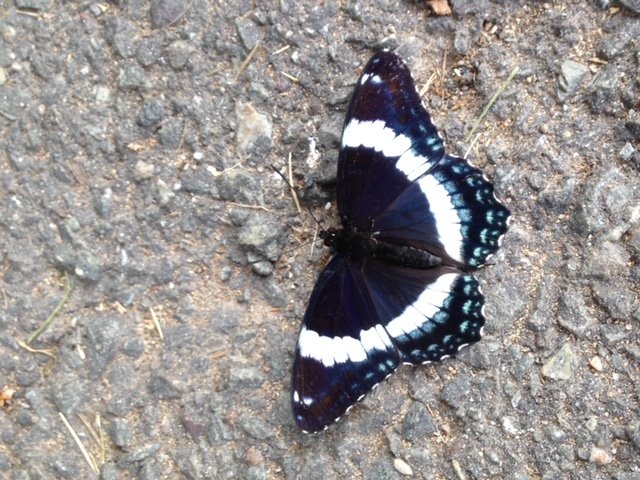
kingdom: Animalia
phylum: Arthropoda
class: Insecta
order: Lepidoptera
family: Nymphalidae
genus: Limenitis
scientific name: Limenitis arthemis
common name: Red-spotted Admiral
